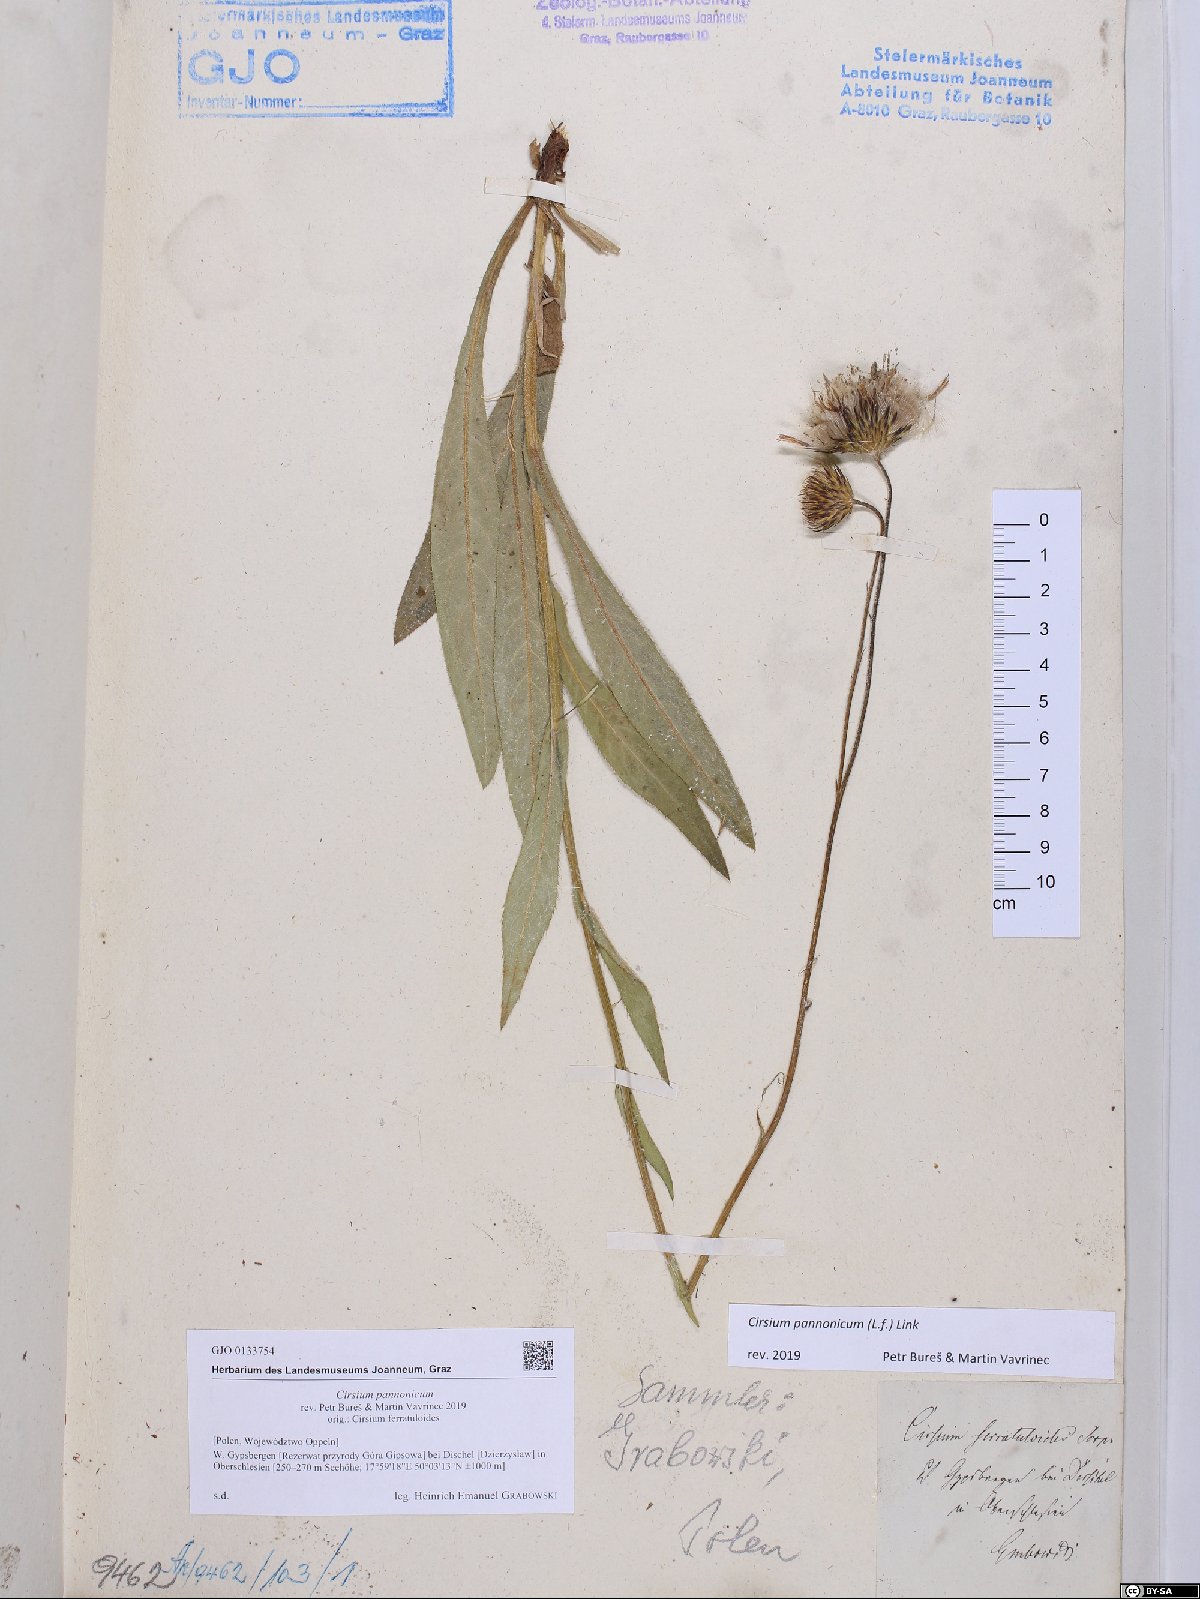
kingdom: Plantae
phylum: Tracheophyta
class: Magnoliopsida
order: Asterales
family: Asteraceae
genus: Cirsium
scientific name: Cirsium pannonicum
